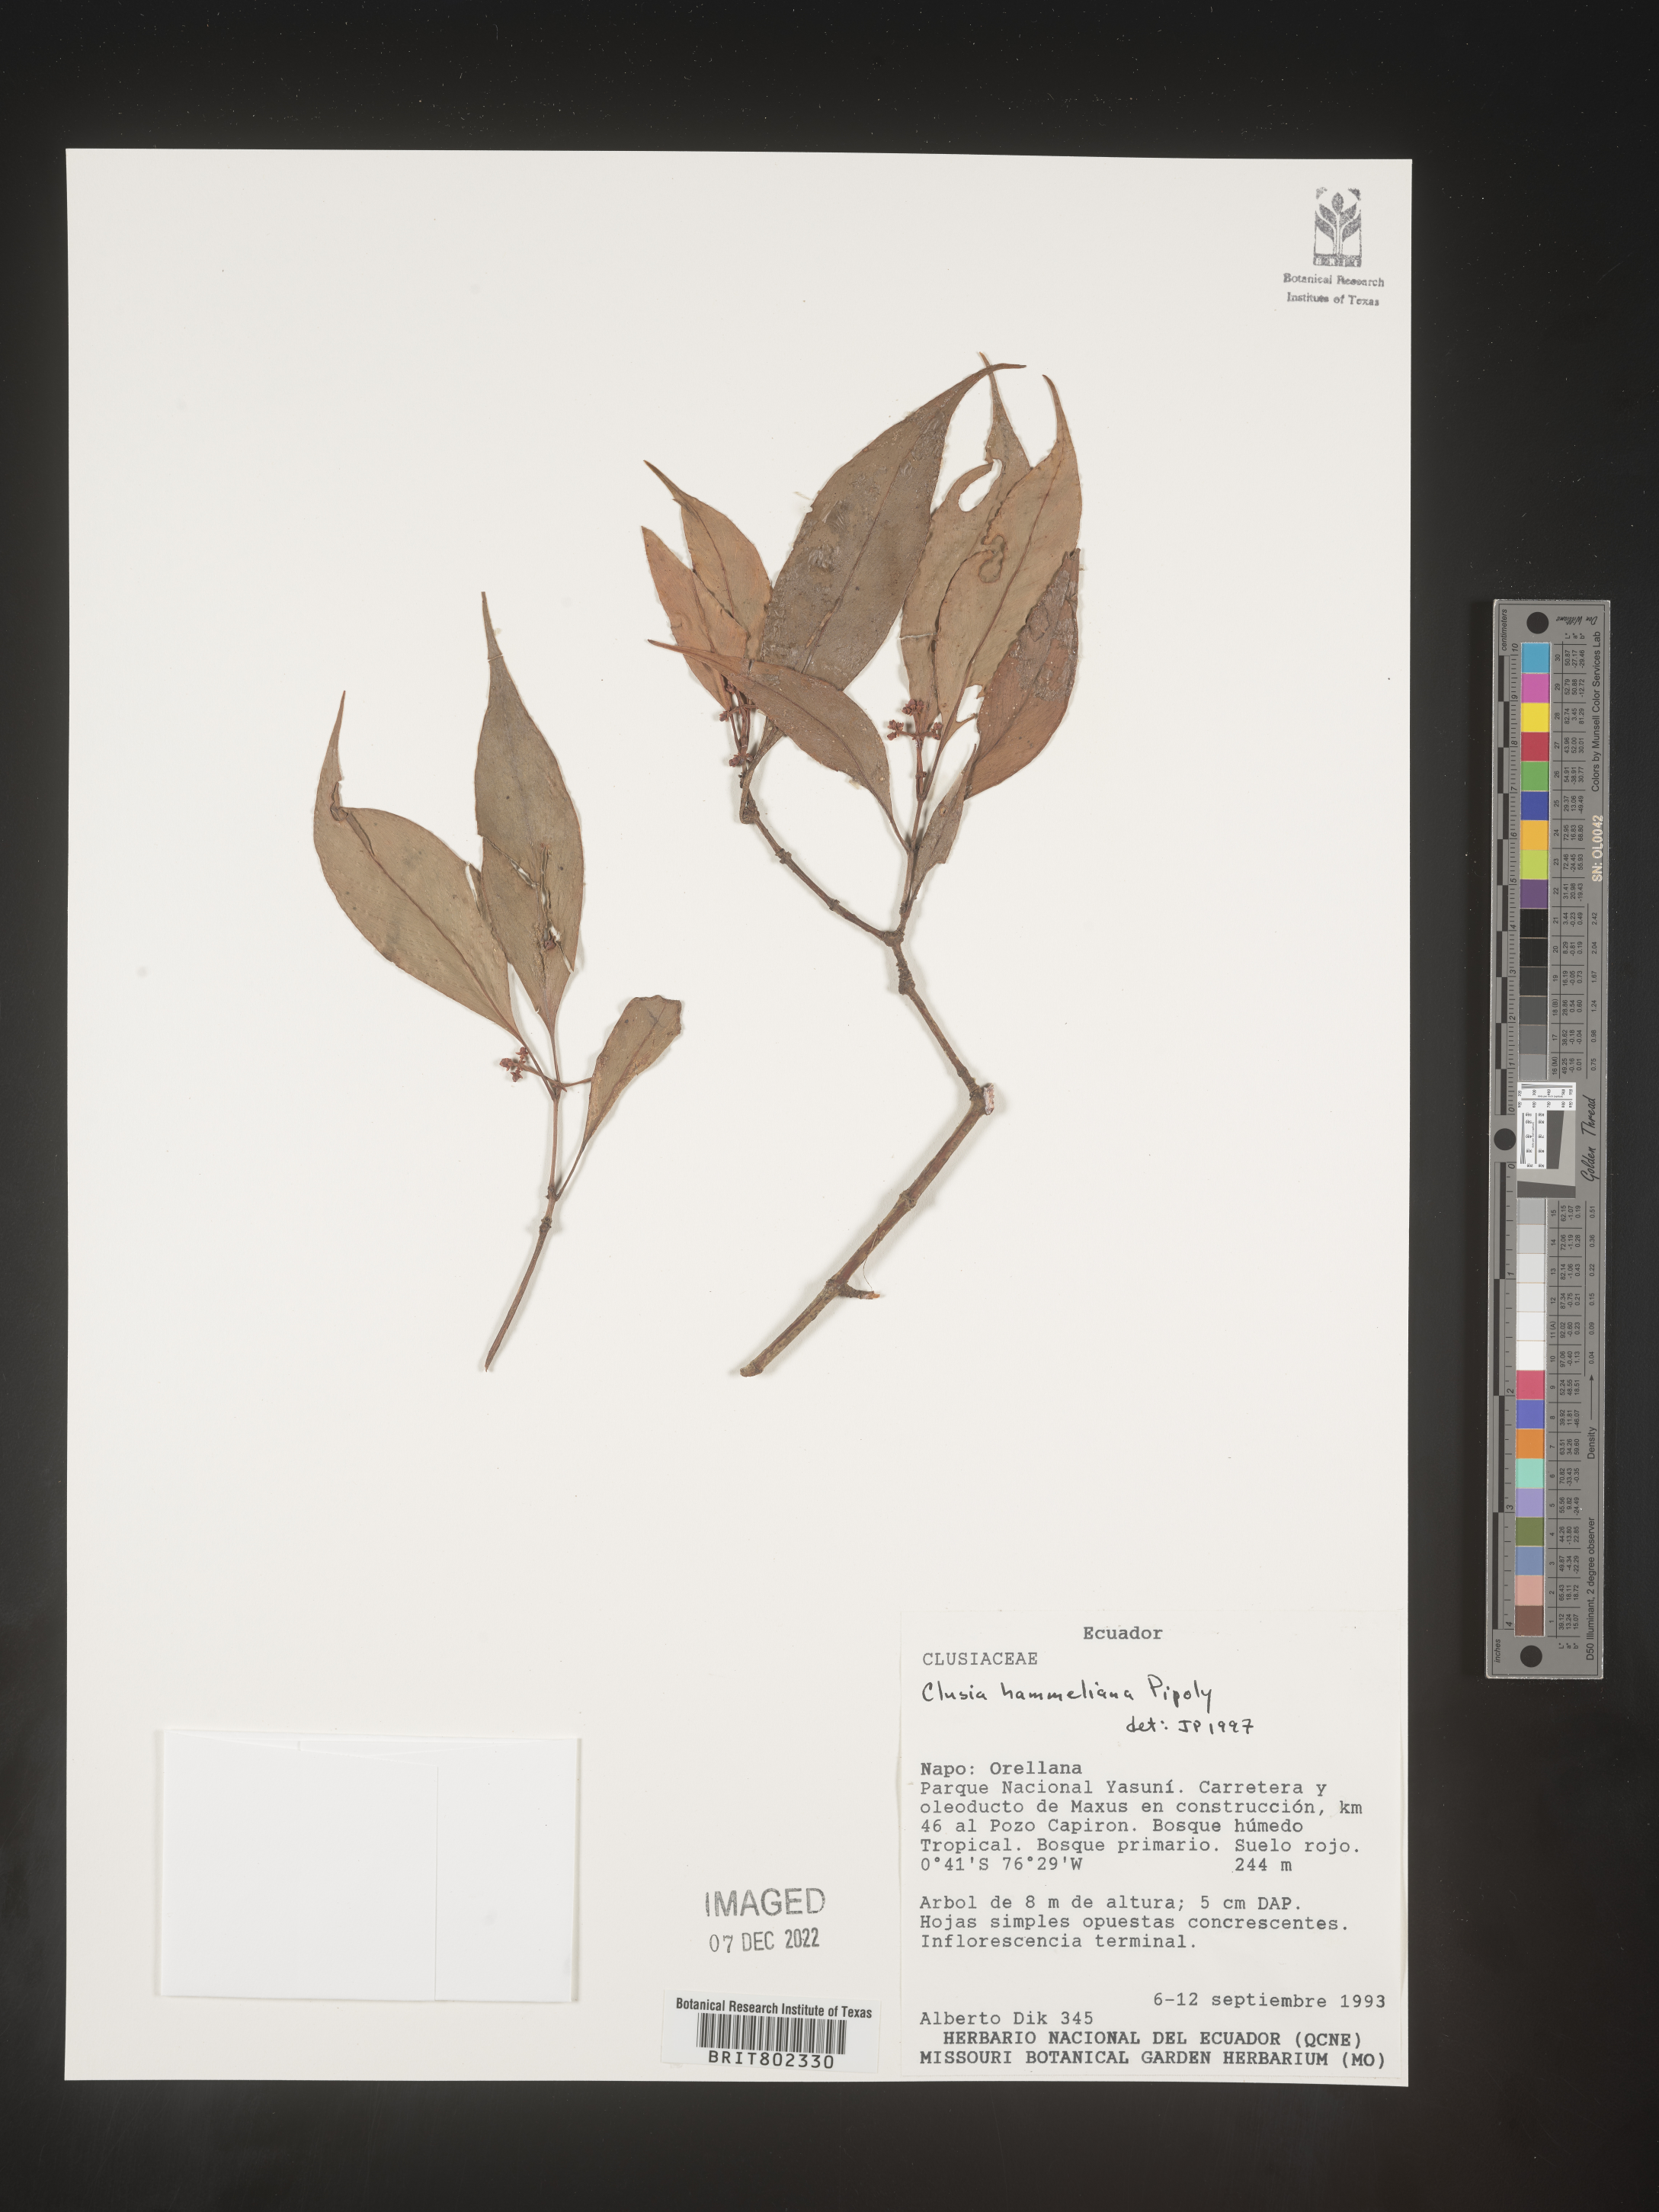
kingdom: Plantae
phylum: Tracheophyta
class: Magnoliopsida
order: Malpighiales
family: Clusiaceae
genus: Clusia
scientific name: Clusia hammeliana
